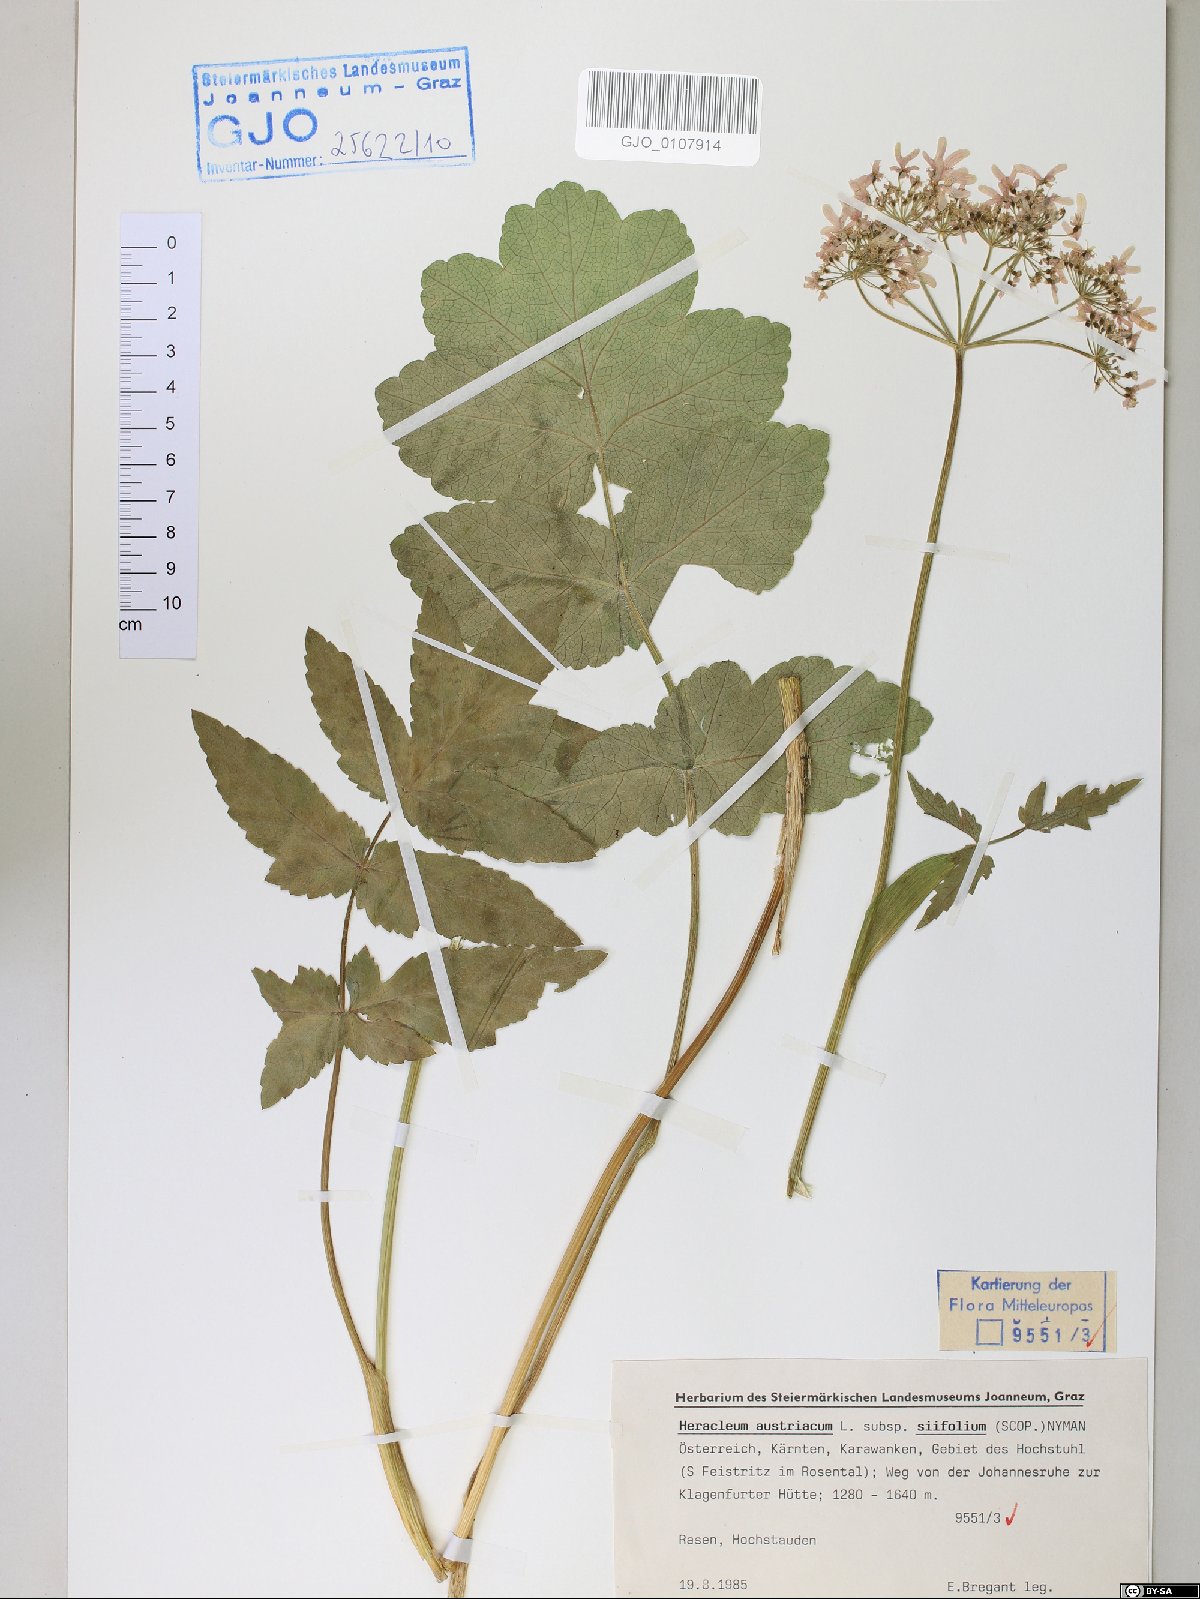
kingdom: Plantae
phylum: Tracheophyta
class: Magnoliopsida
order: Apiales
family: Apiaceae
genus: Heracleum
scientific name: Heracleum austriacum
